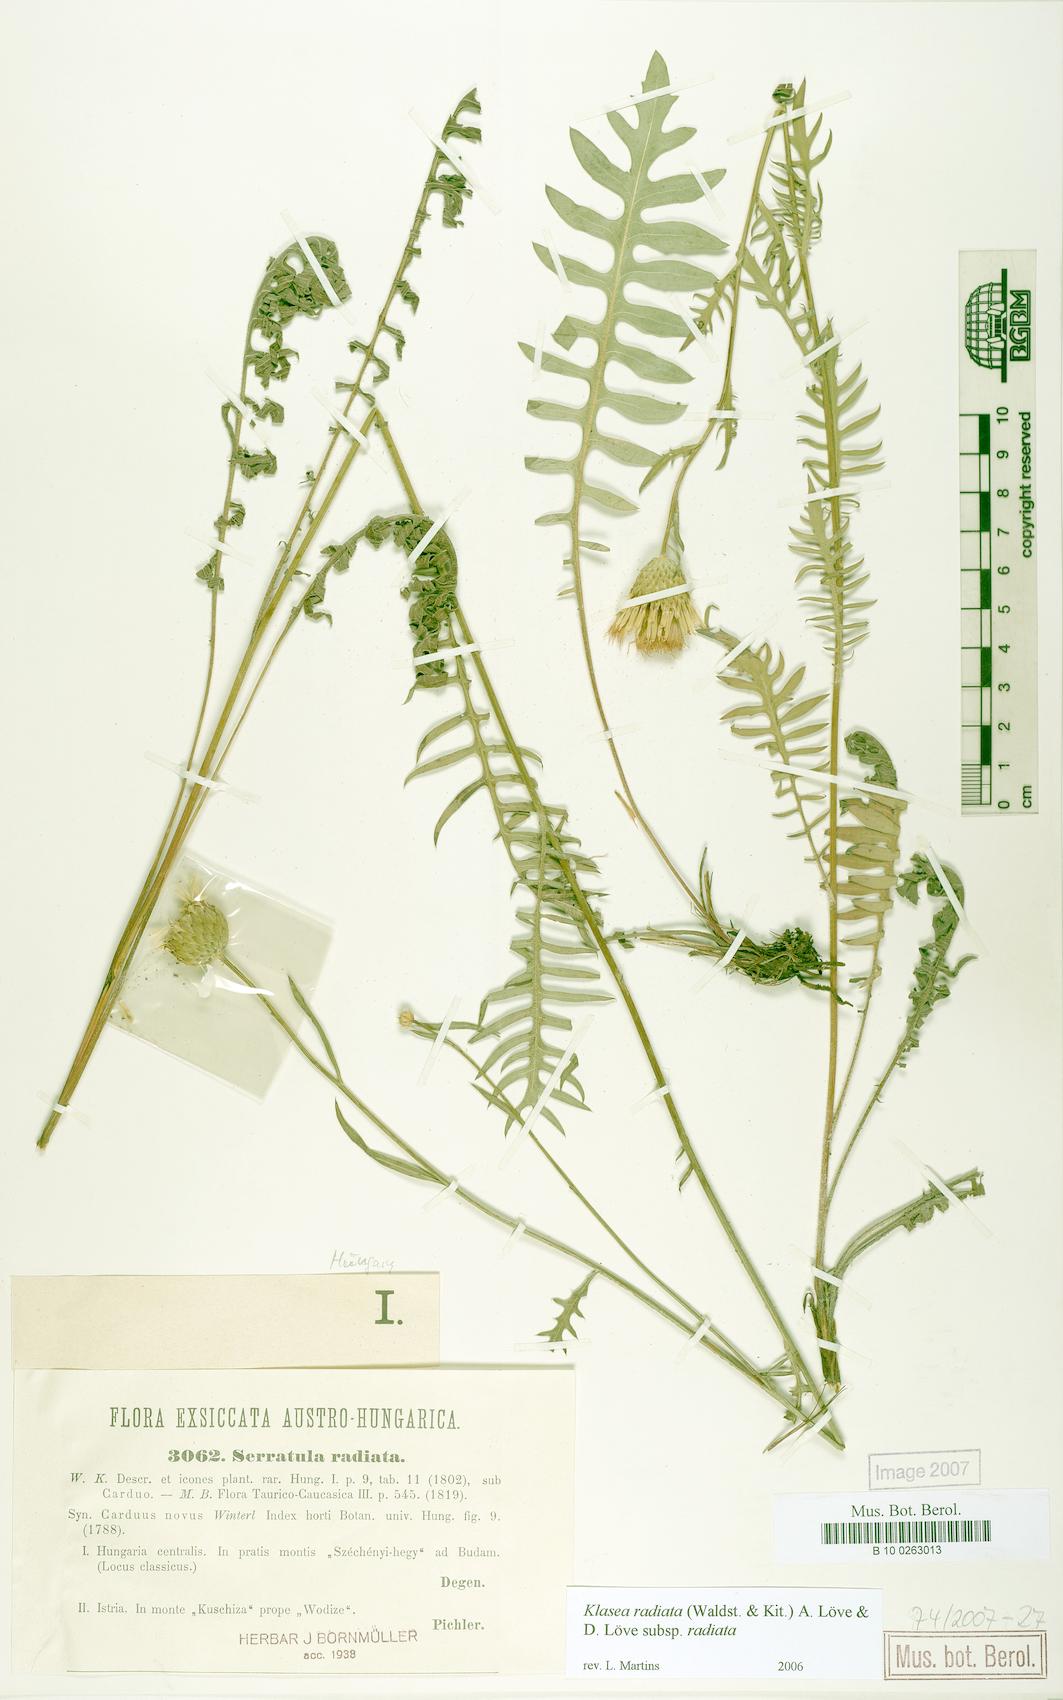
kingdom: Plantae
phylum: Tracheophyta
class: Magnoliopsida
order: Asterales
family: Asteraceae
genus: Klasea
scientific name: Klasea radiata
